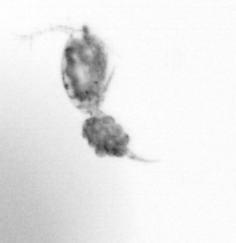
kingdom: Animalia
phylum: Arthropoda
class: Copepoda
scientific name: Copepoda
